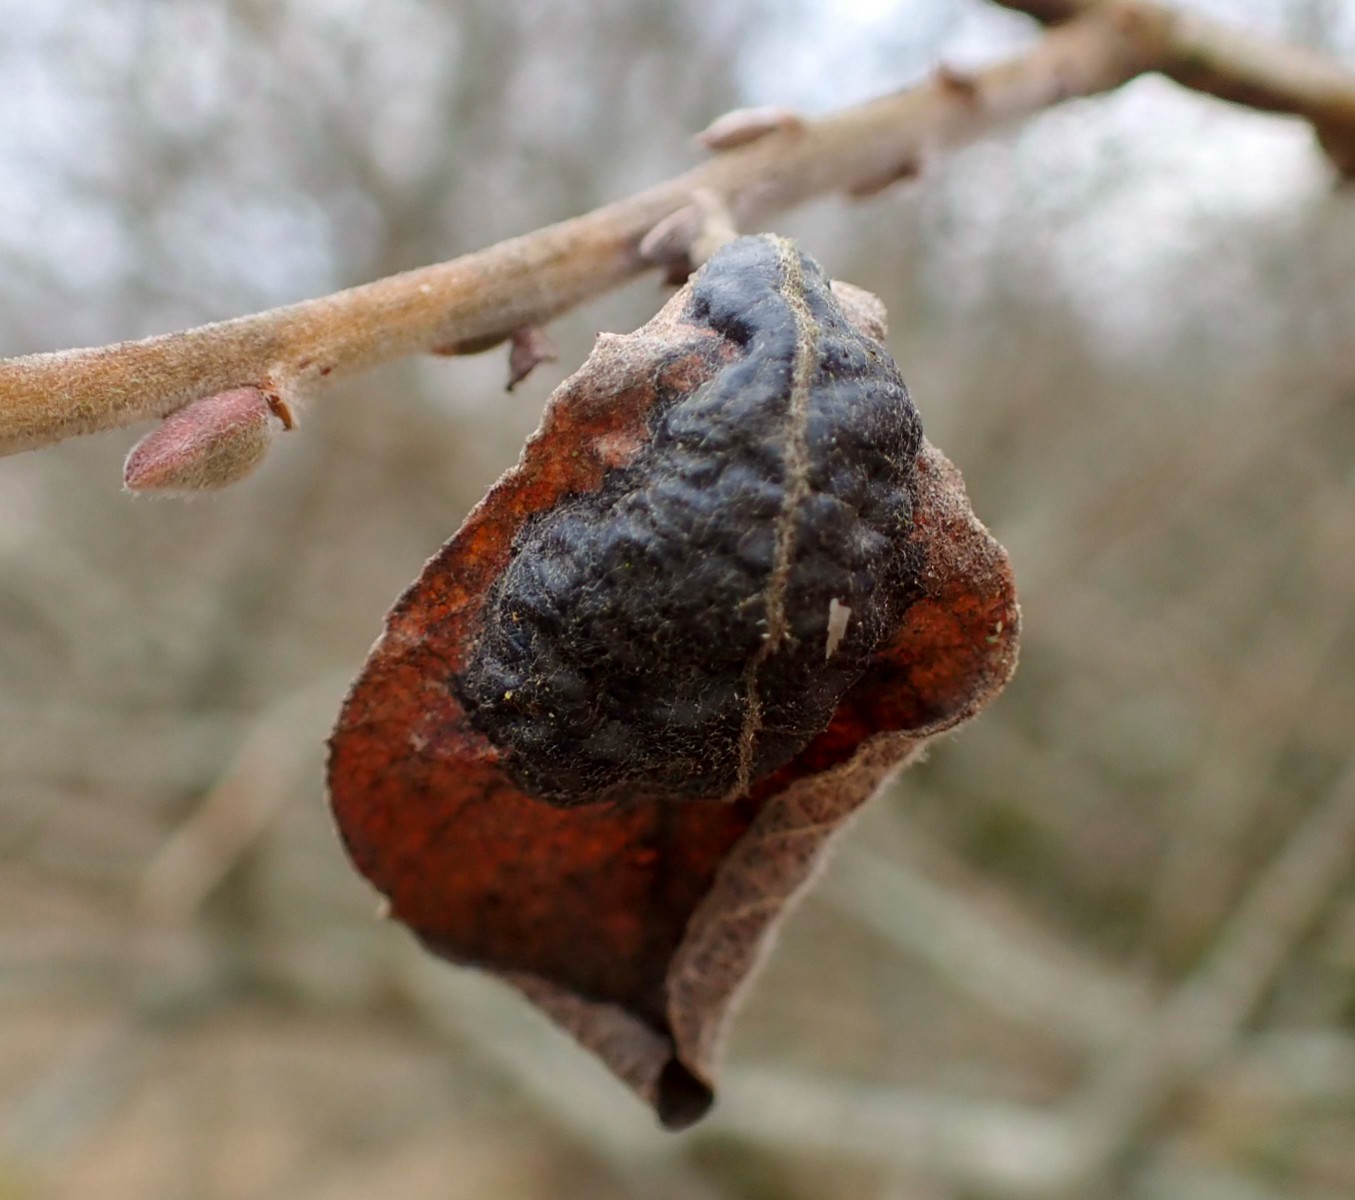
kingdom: Fungi
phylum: Ascomycota
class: Leotiomycetes
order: Rhytismatales
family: Rhytismataceae
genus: Rhytisma
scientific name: Rhytisma salicinum
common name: pile-rynkeplet
